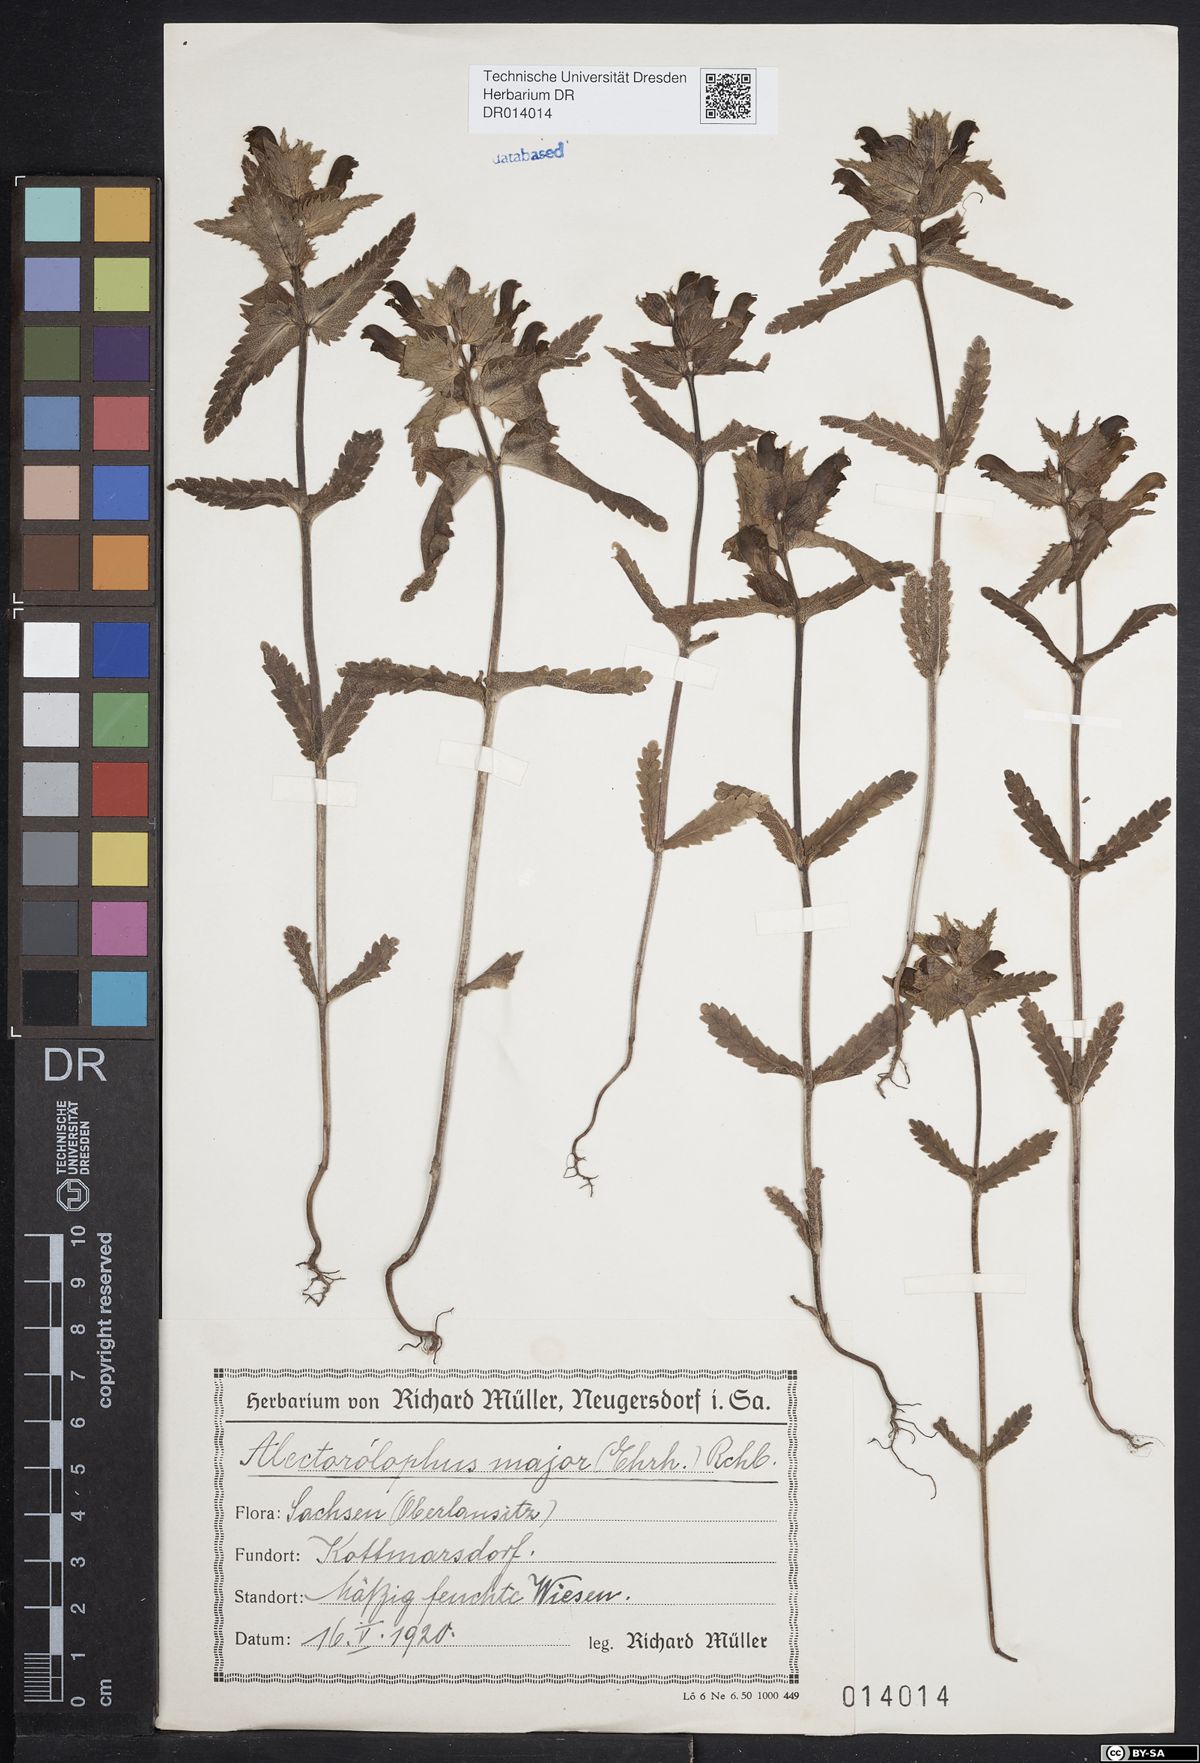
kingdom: Plantae
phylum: Tracheophyta
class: Magnoliopsida
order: Lamiales
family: Orobanchaceae
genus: Rhinanthus
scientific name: Rhinanthus serotinus
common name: Late-flowering yellow rattle
